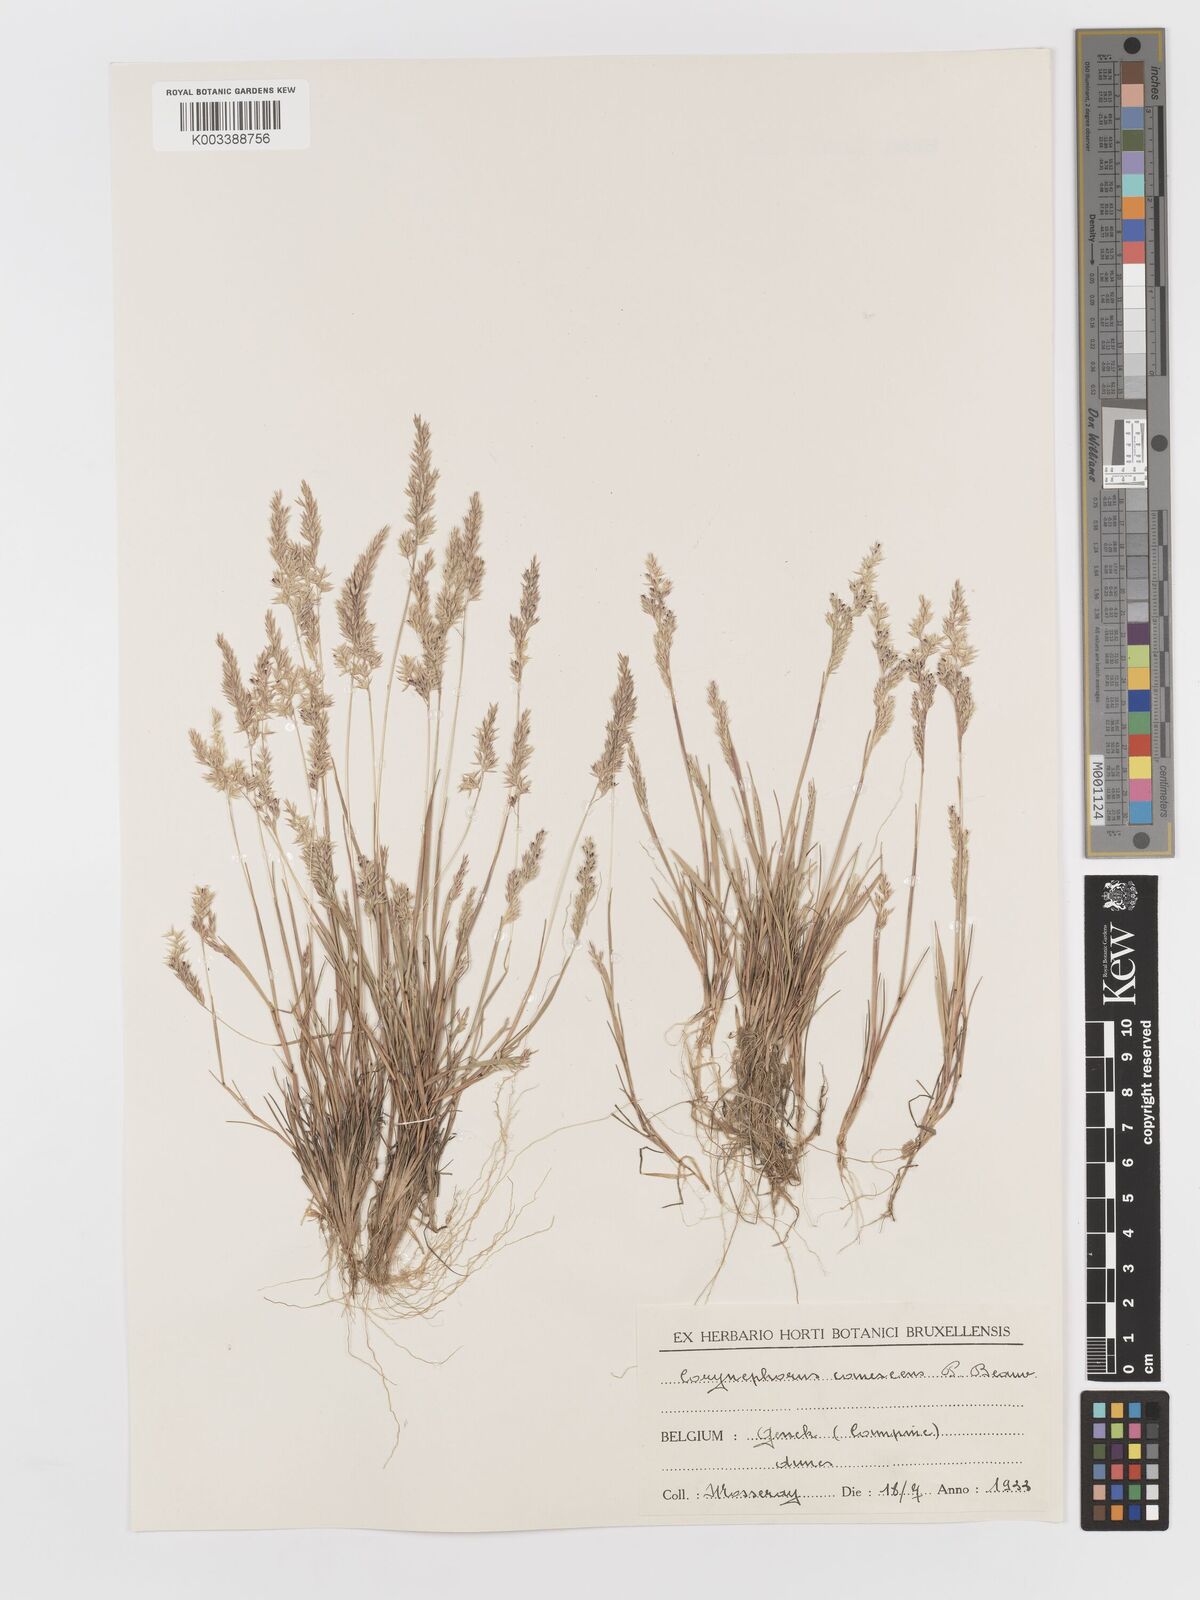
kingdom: Plantae
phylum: Tracheophyta
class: Liliopsida
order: Poales
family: Poaceae
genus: Corynephorus
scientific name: Corynephorus canescens
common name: Grey hair-grass
